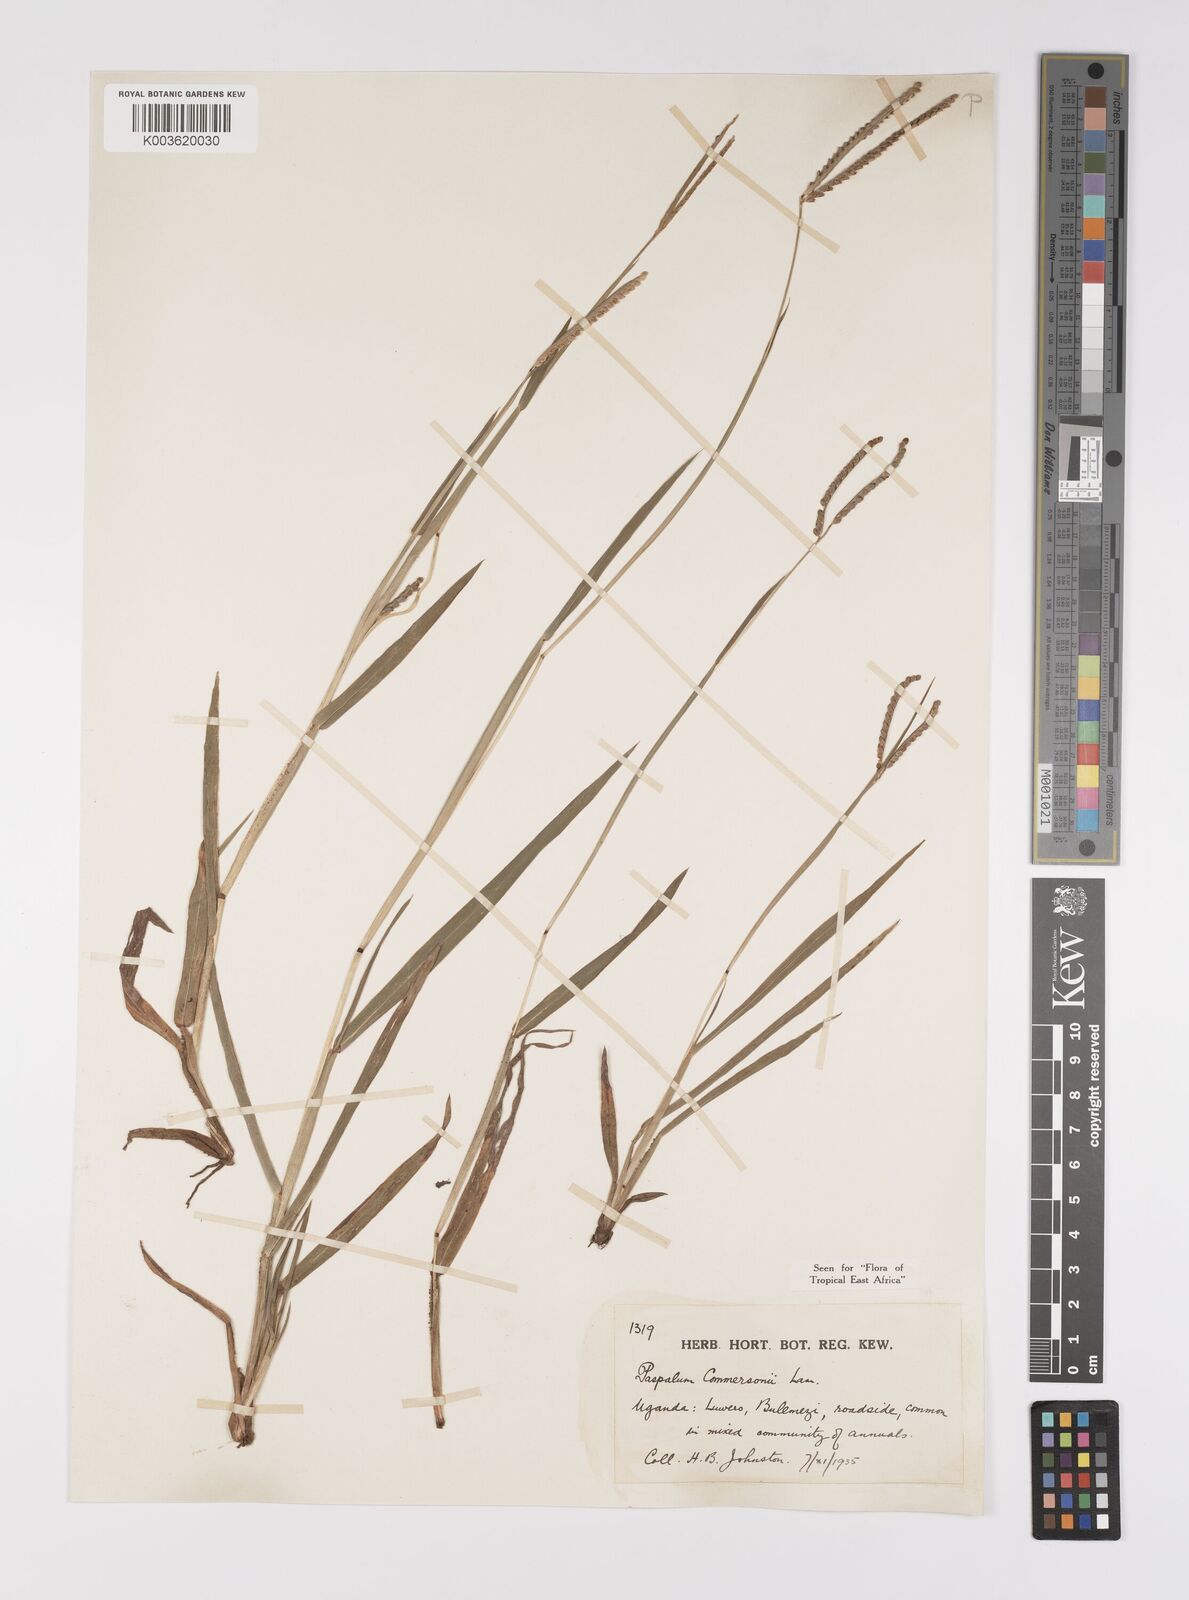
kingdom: Plantae
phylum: Tracheophyta
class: Liliopsida
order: Poales
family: Poaceae
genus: Paspalum
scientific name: Paspalum scrobiculatum
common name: Kodo millet
